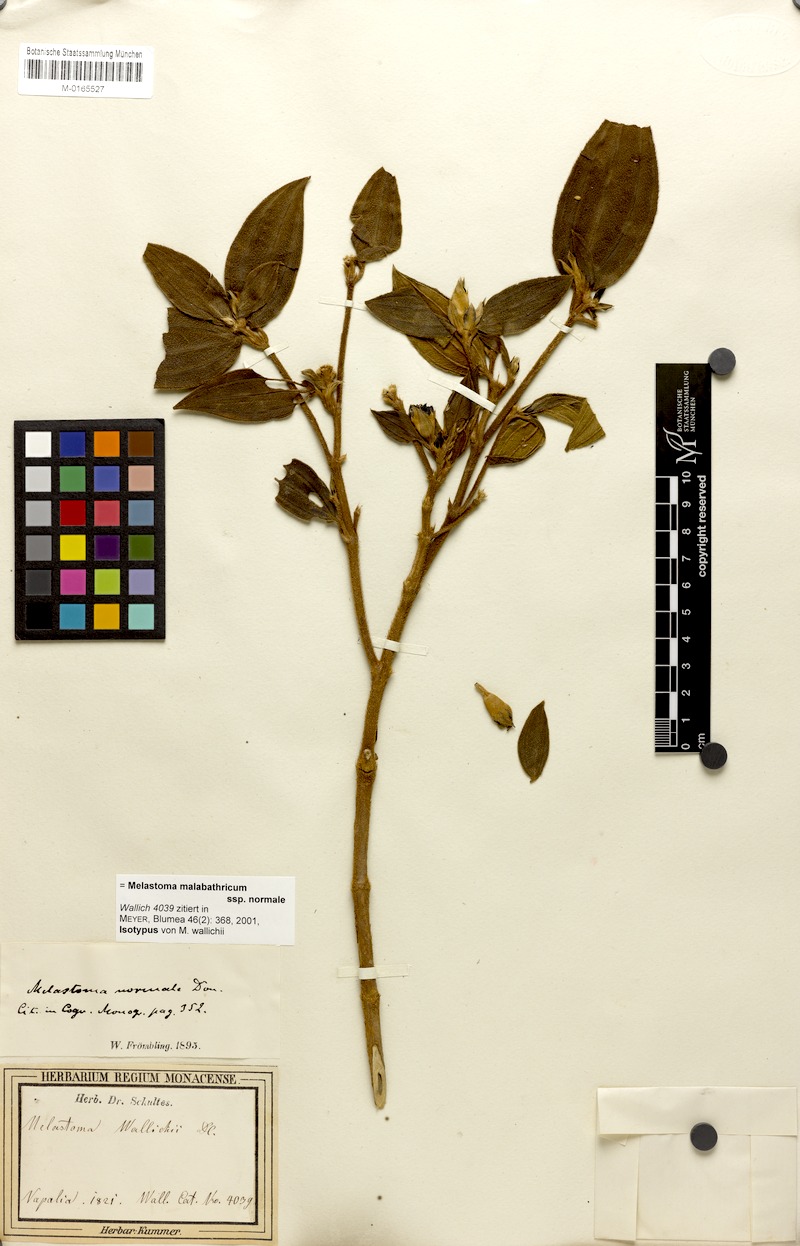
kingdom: Plantae
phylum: Tracheophyta
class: Magnoliopsida
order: Myrtales
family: Melastomataceae
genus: Melastoma
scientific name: Melastoma malabathricum
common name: Indian-rhododendron
